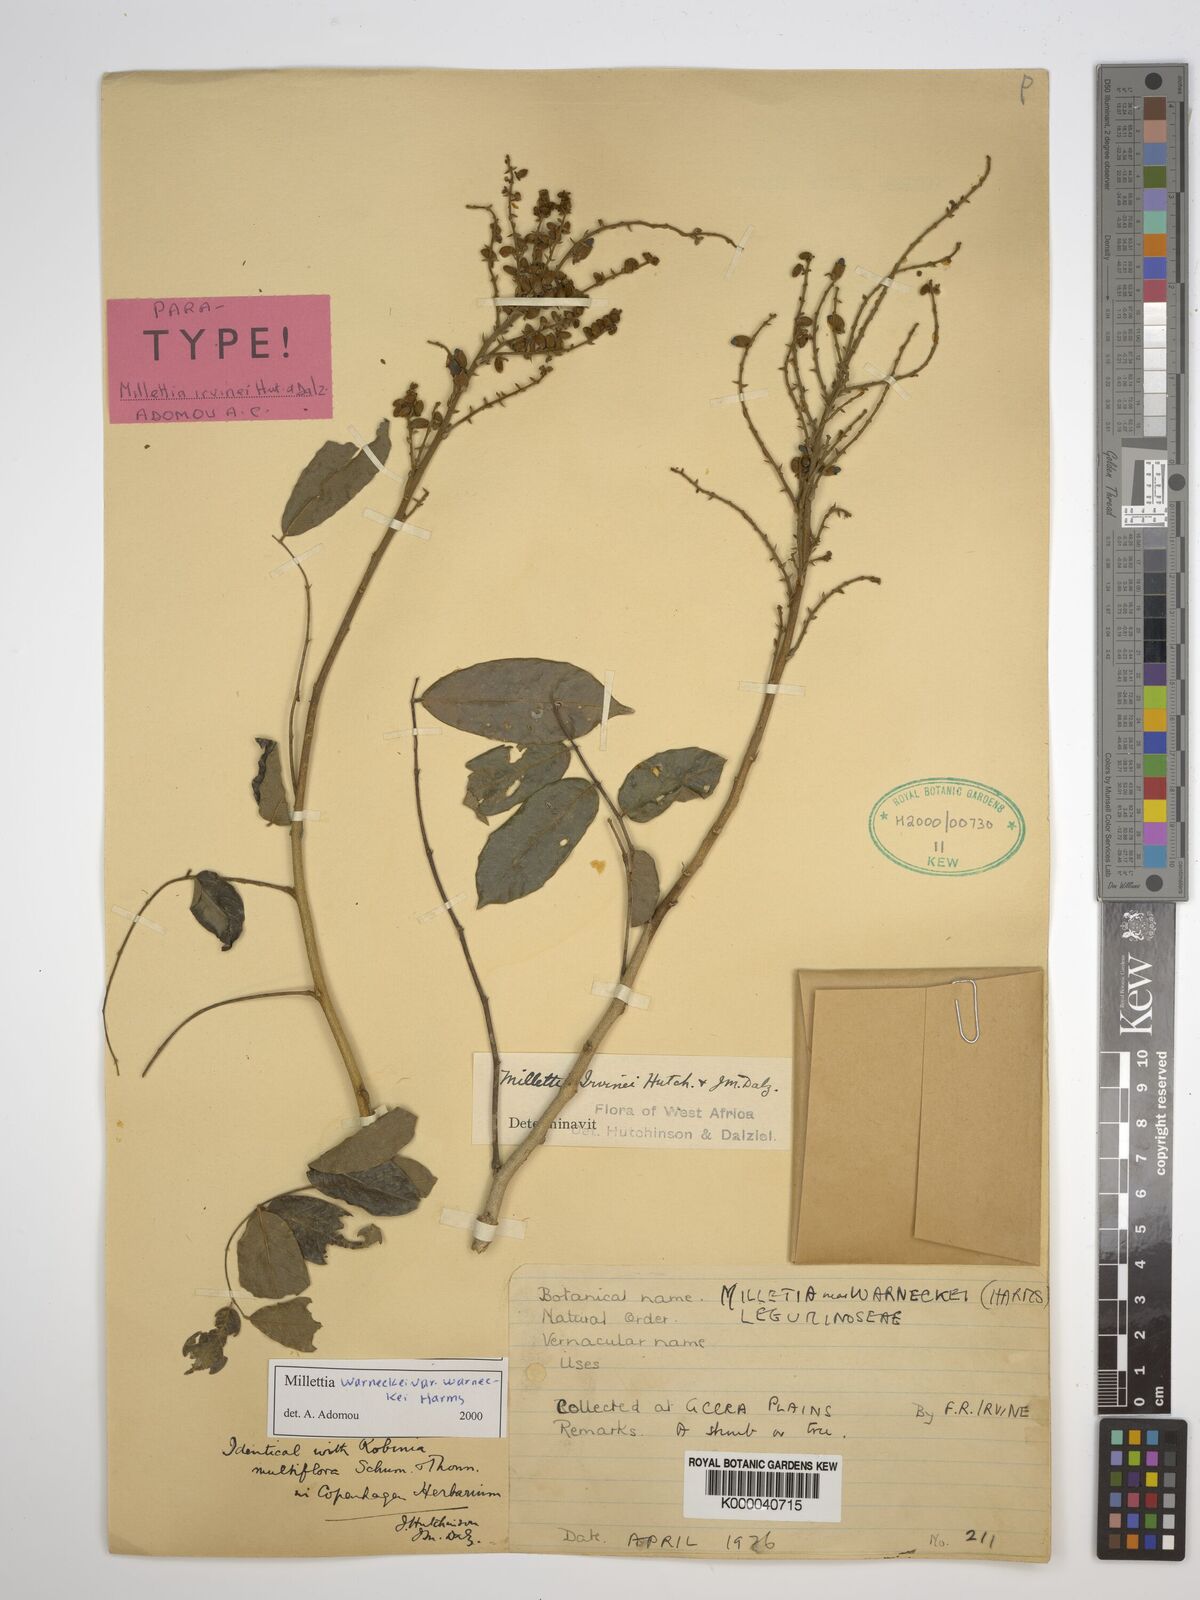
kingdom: Plantae
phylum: Tracheophyta
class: Magnoliopsida
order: Fabales
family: Fabaceae
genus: Millettia
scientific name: Millettia warneckei
